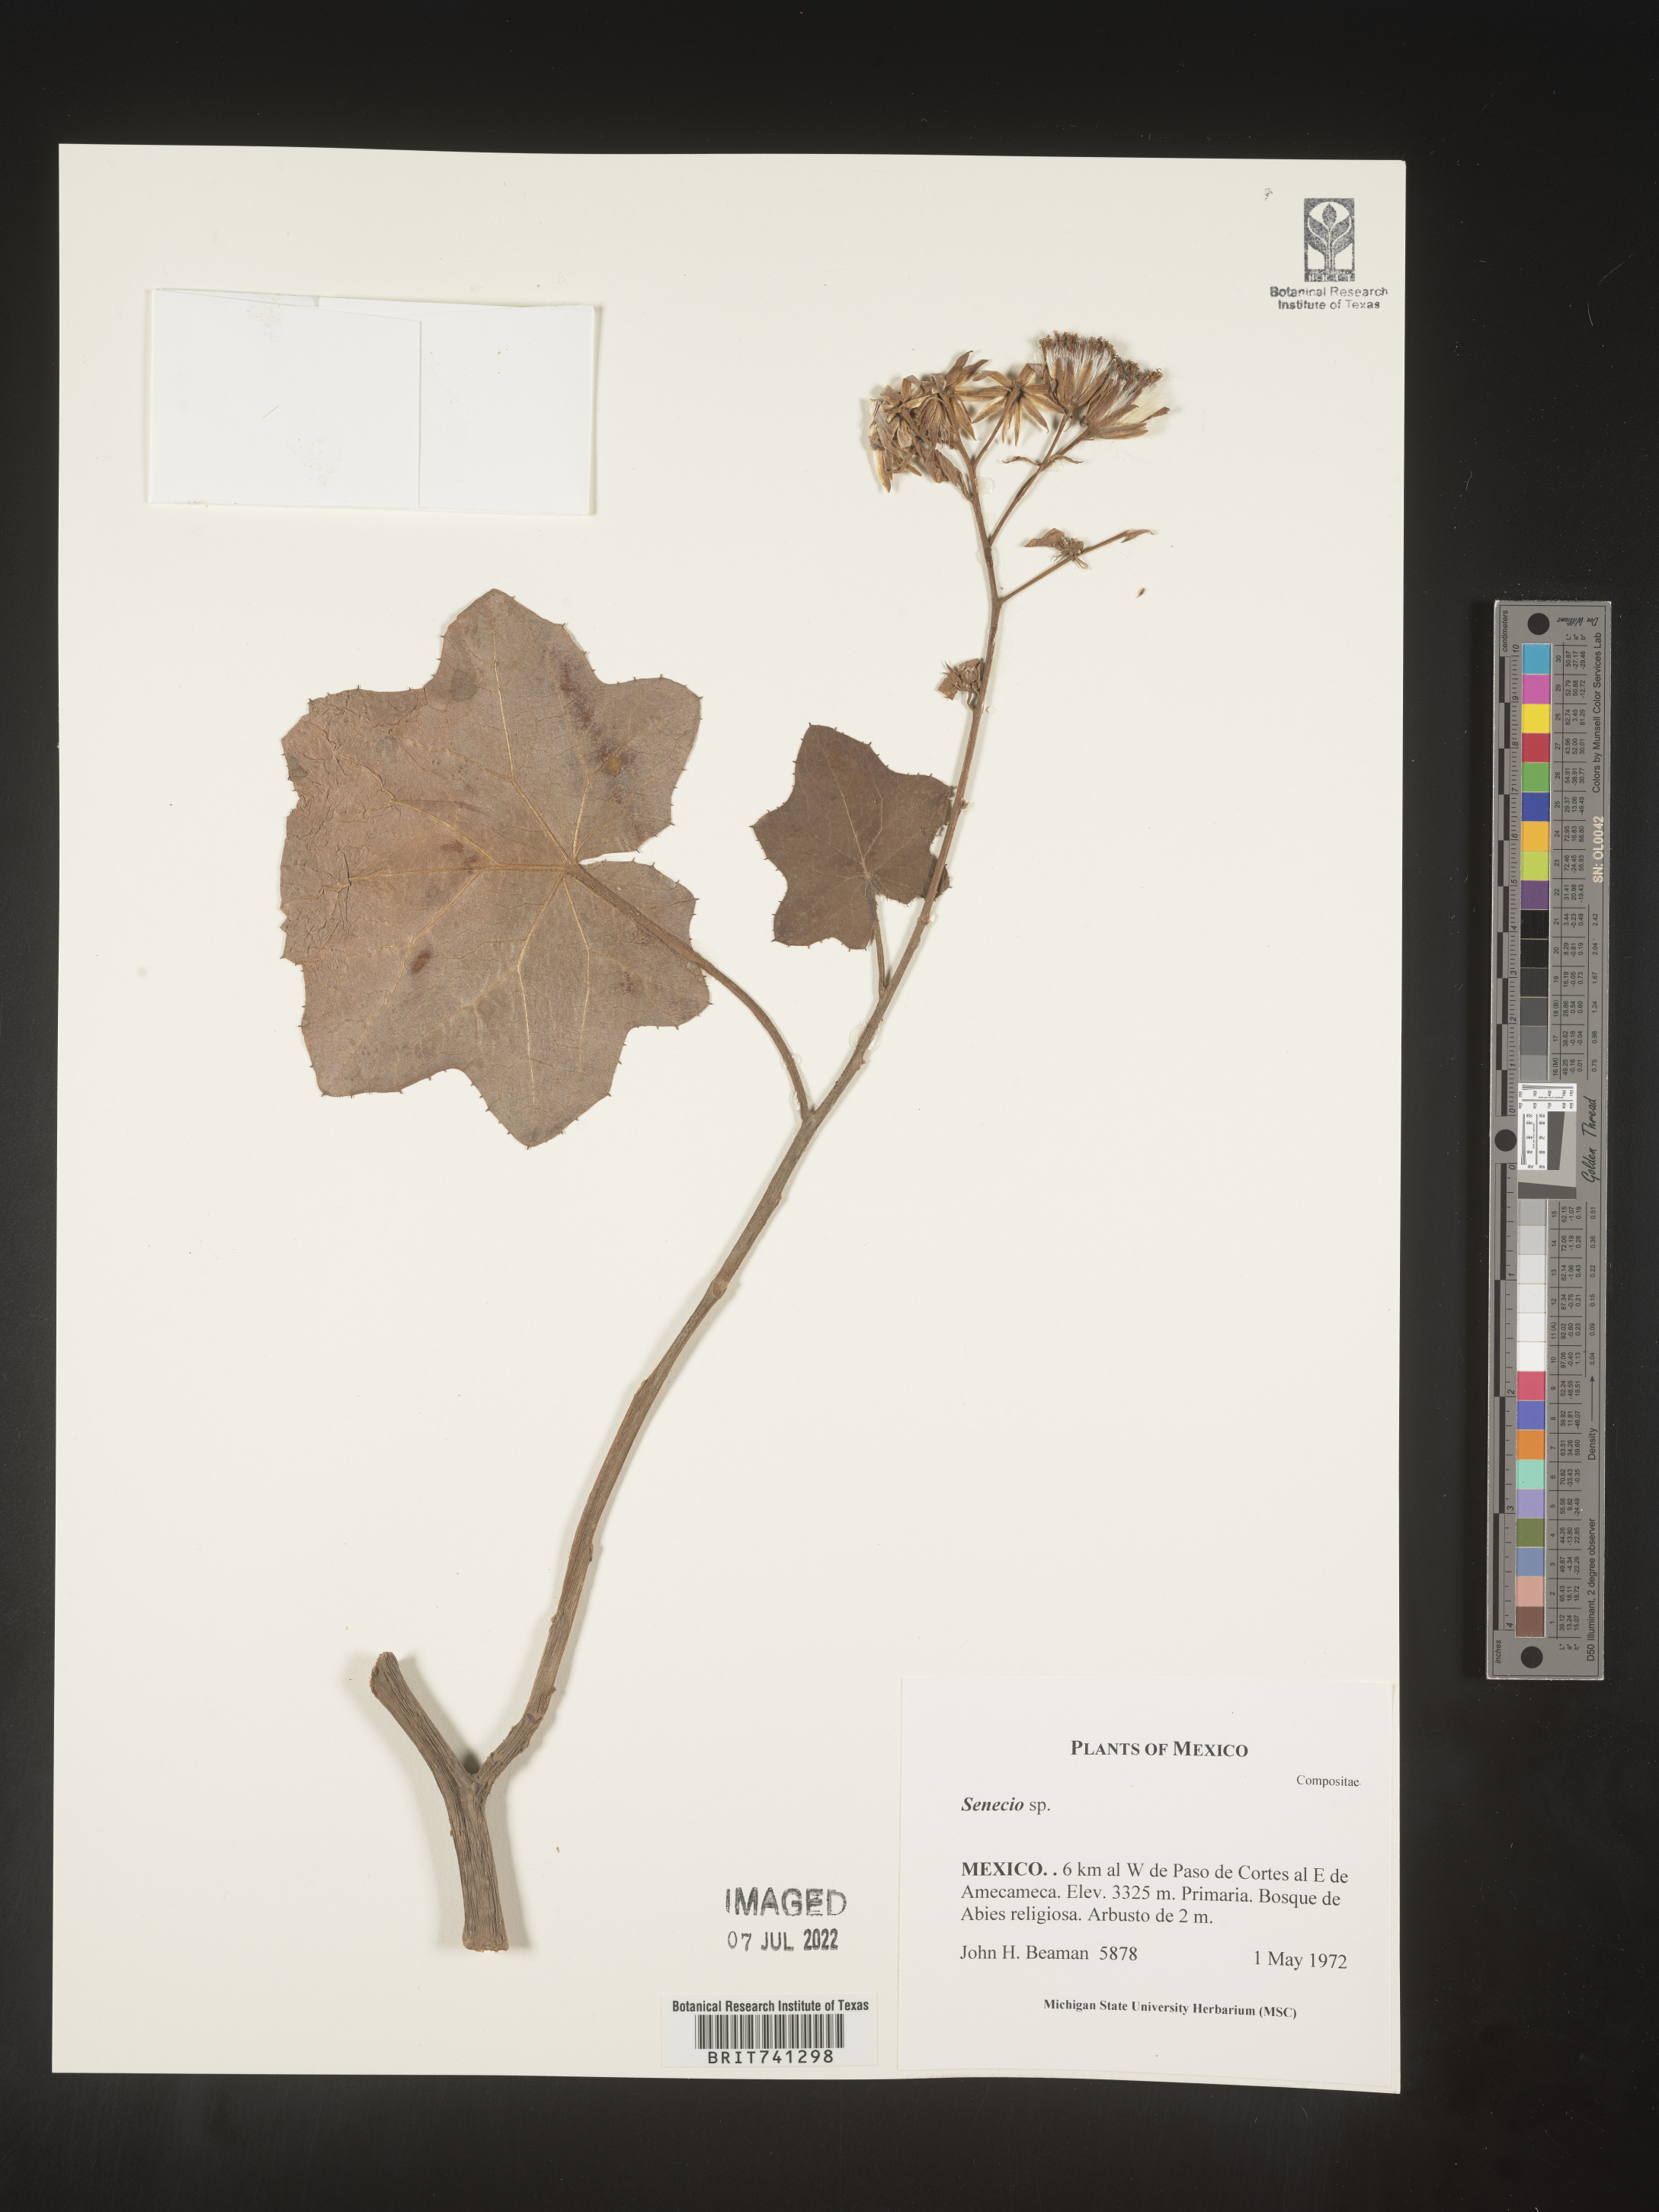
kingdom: Plantae
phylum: Tracheophyta
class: Magnoliopsida
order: Asterales
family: Asteraceae
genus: Senecio
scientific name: Senecio
